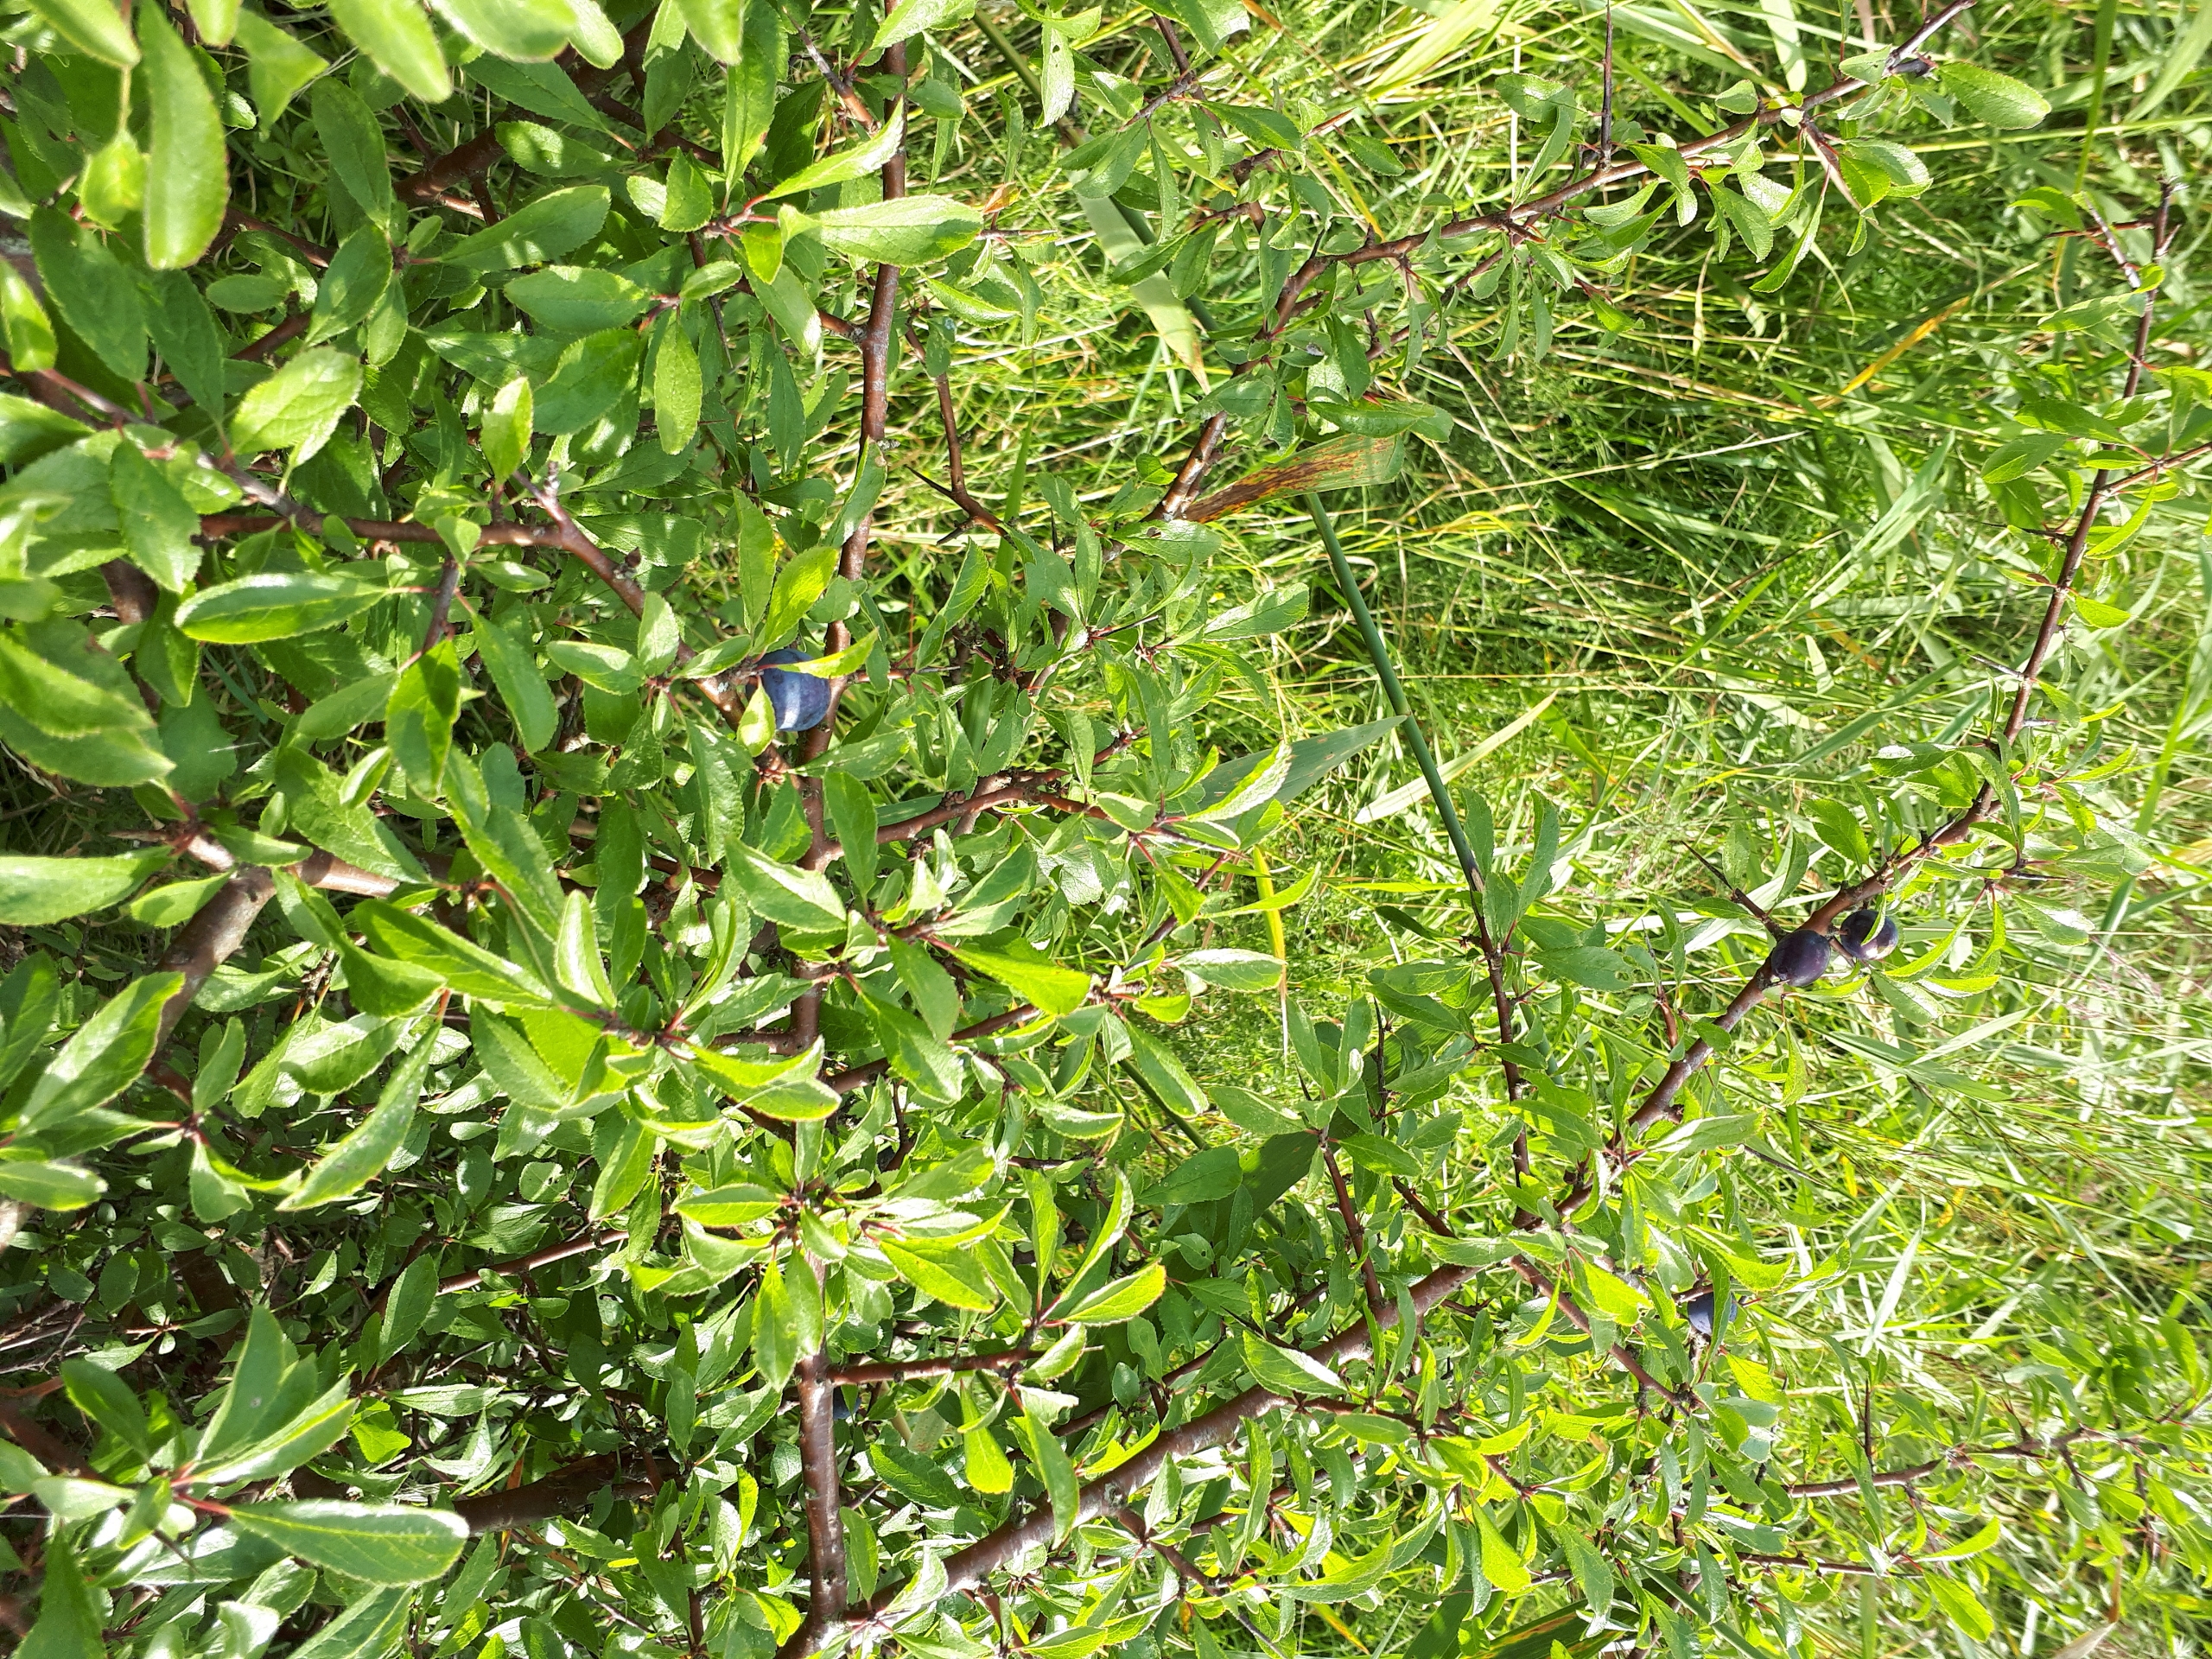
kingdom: Plantae
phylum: Tracheophyta
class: Magnoliopsida
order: Rosales
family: Rosaceae
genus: Prunus
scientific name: Prunus spinosa
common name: Slåen
